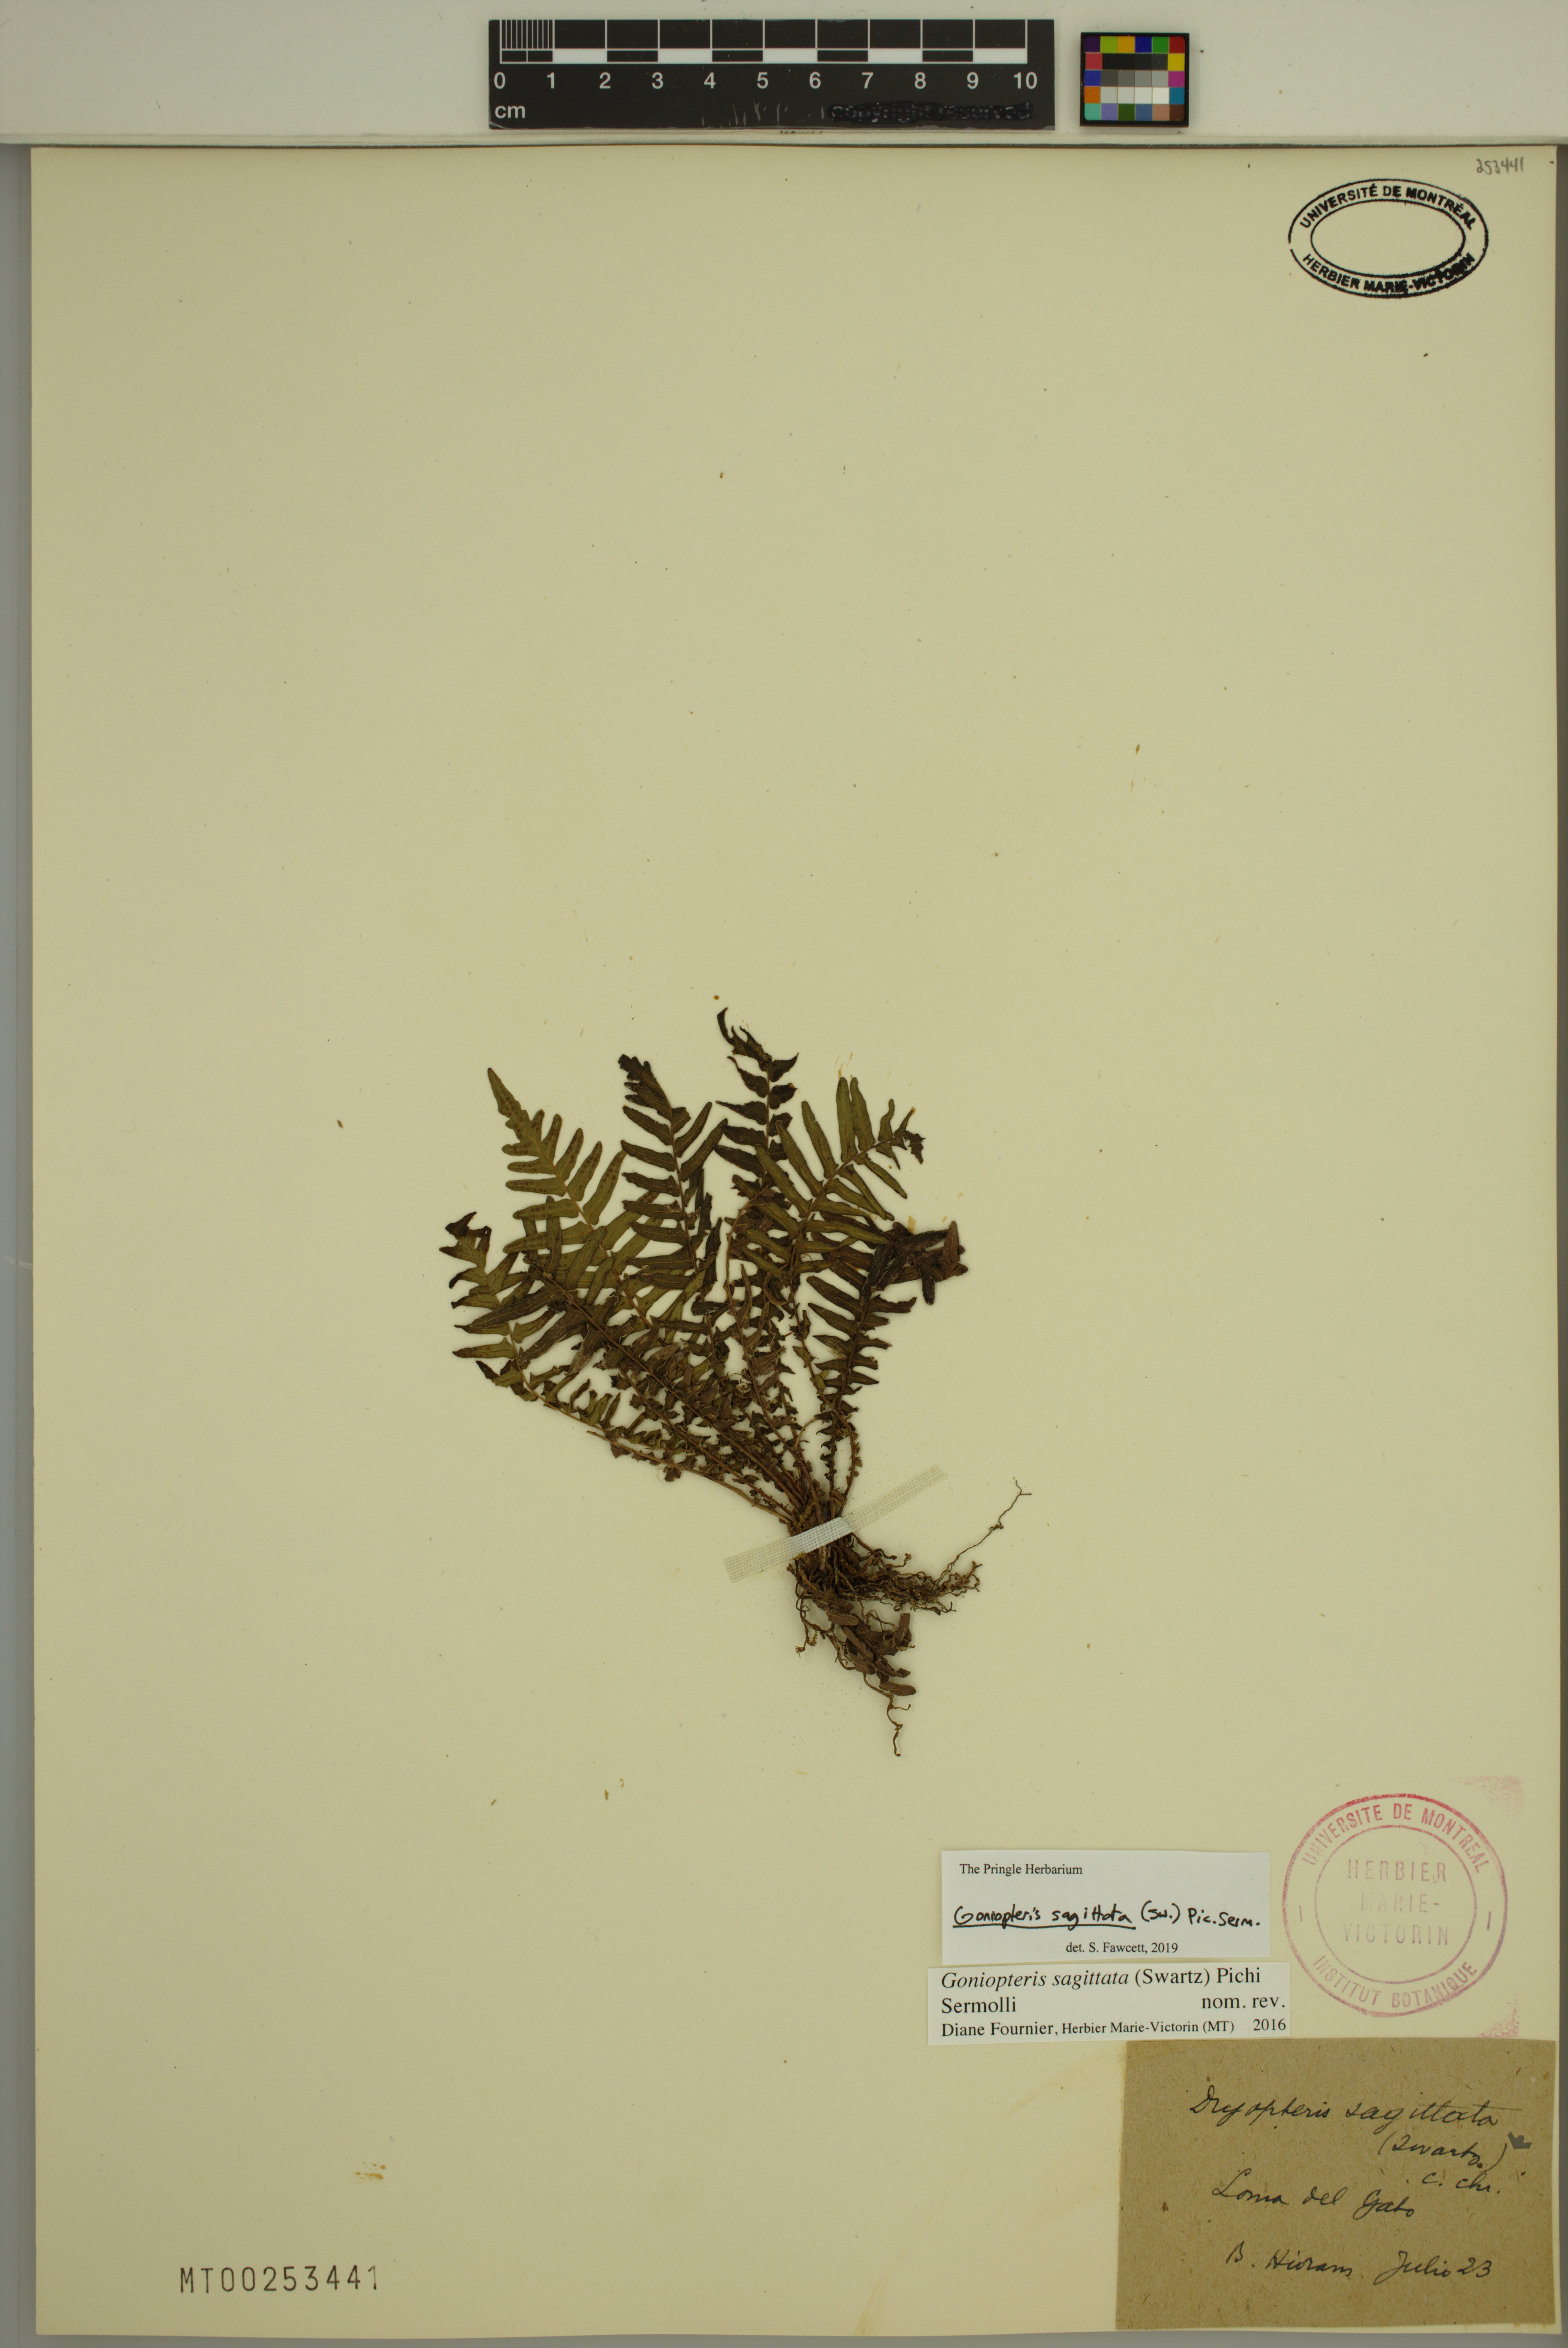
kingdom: Plantae
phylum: Tracheophyta
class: Polypodiopsida
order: Polypodiales
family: Thelypteridaceae
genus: Goniopteris
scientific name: Goniopteris sagittata
